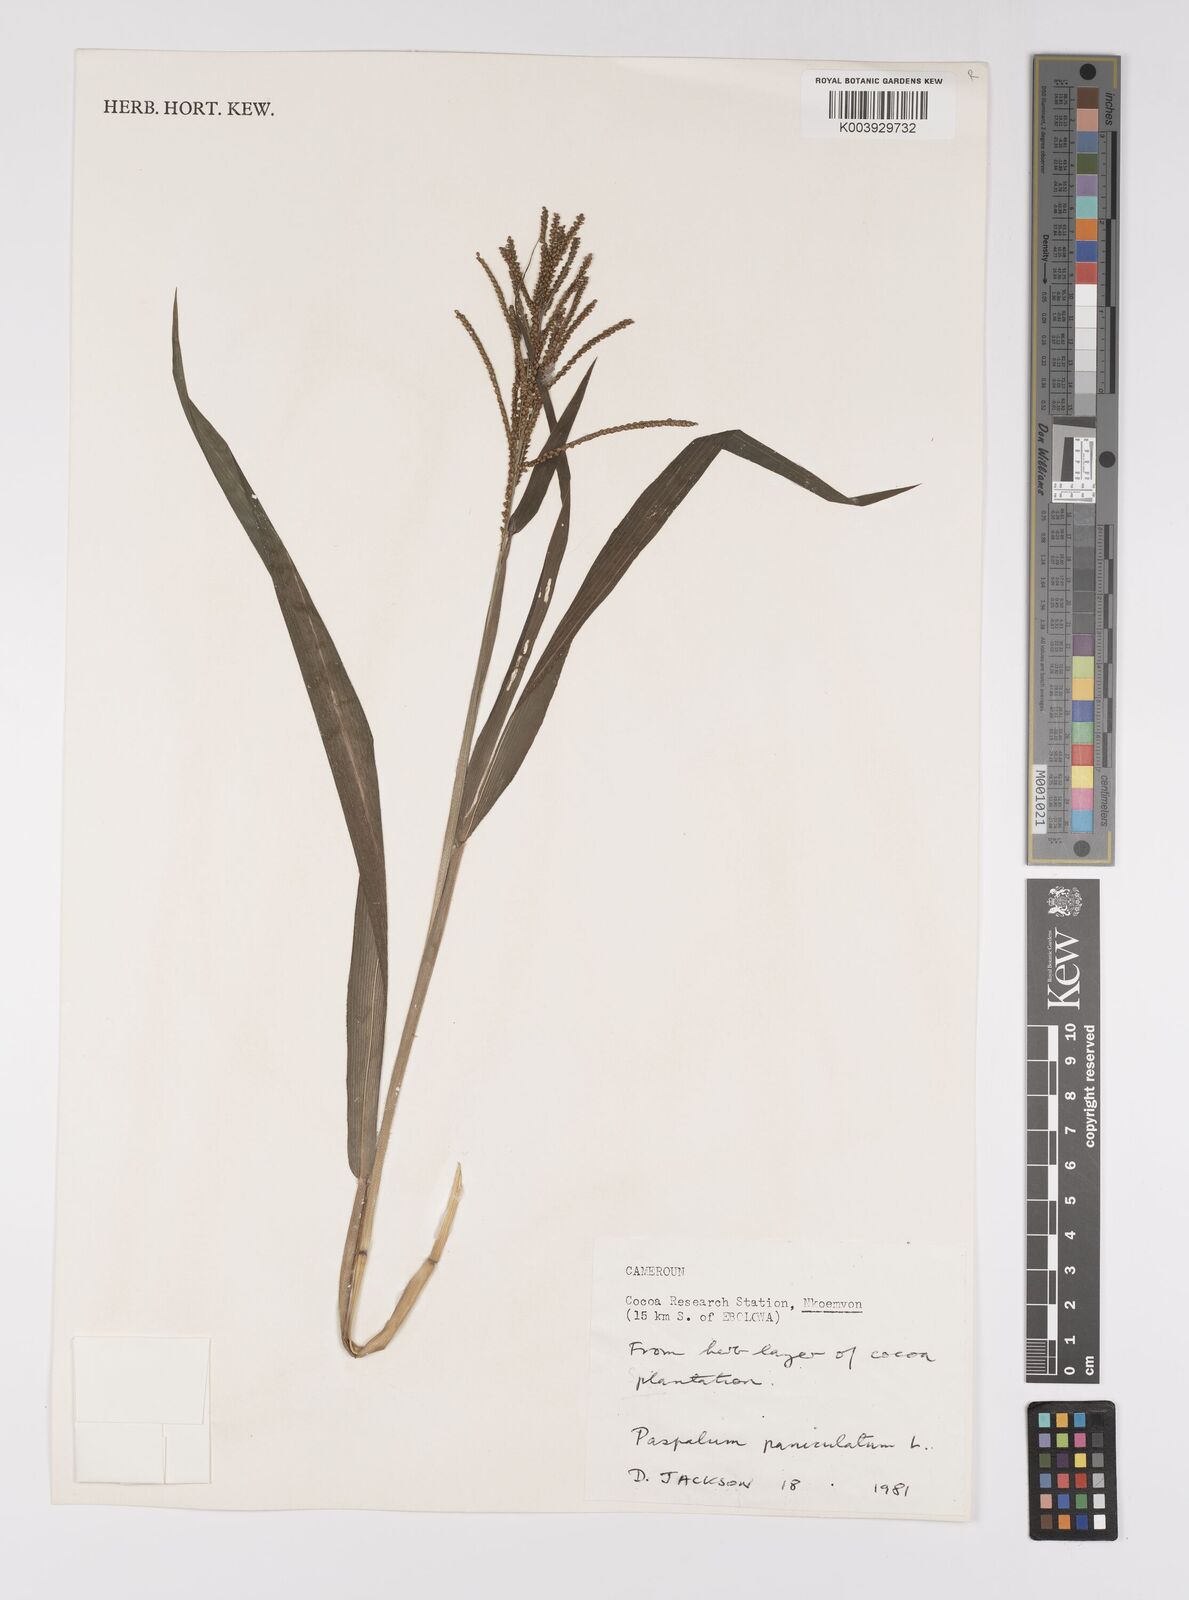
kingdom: Plantae
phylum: Tracheophyta
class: Liliopsida
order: Poales
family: Poaceae
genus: Paspalum
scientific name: Paspalum paniculatum
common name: Arrocillo
